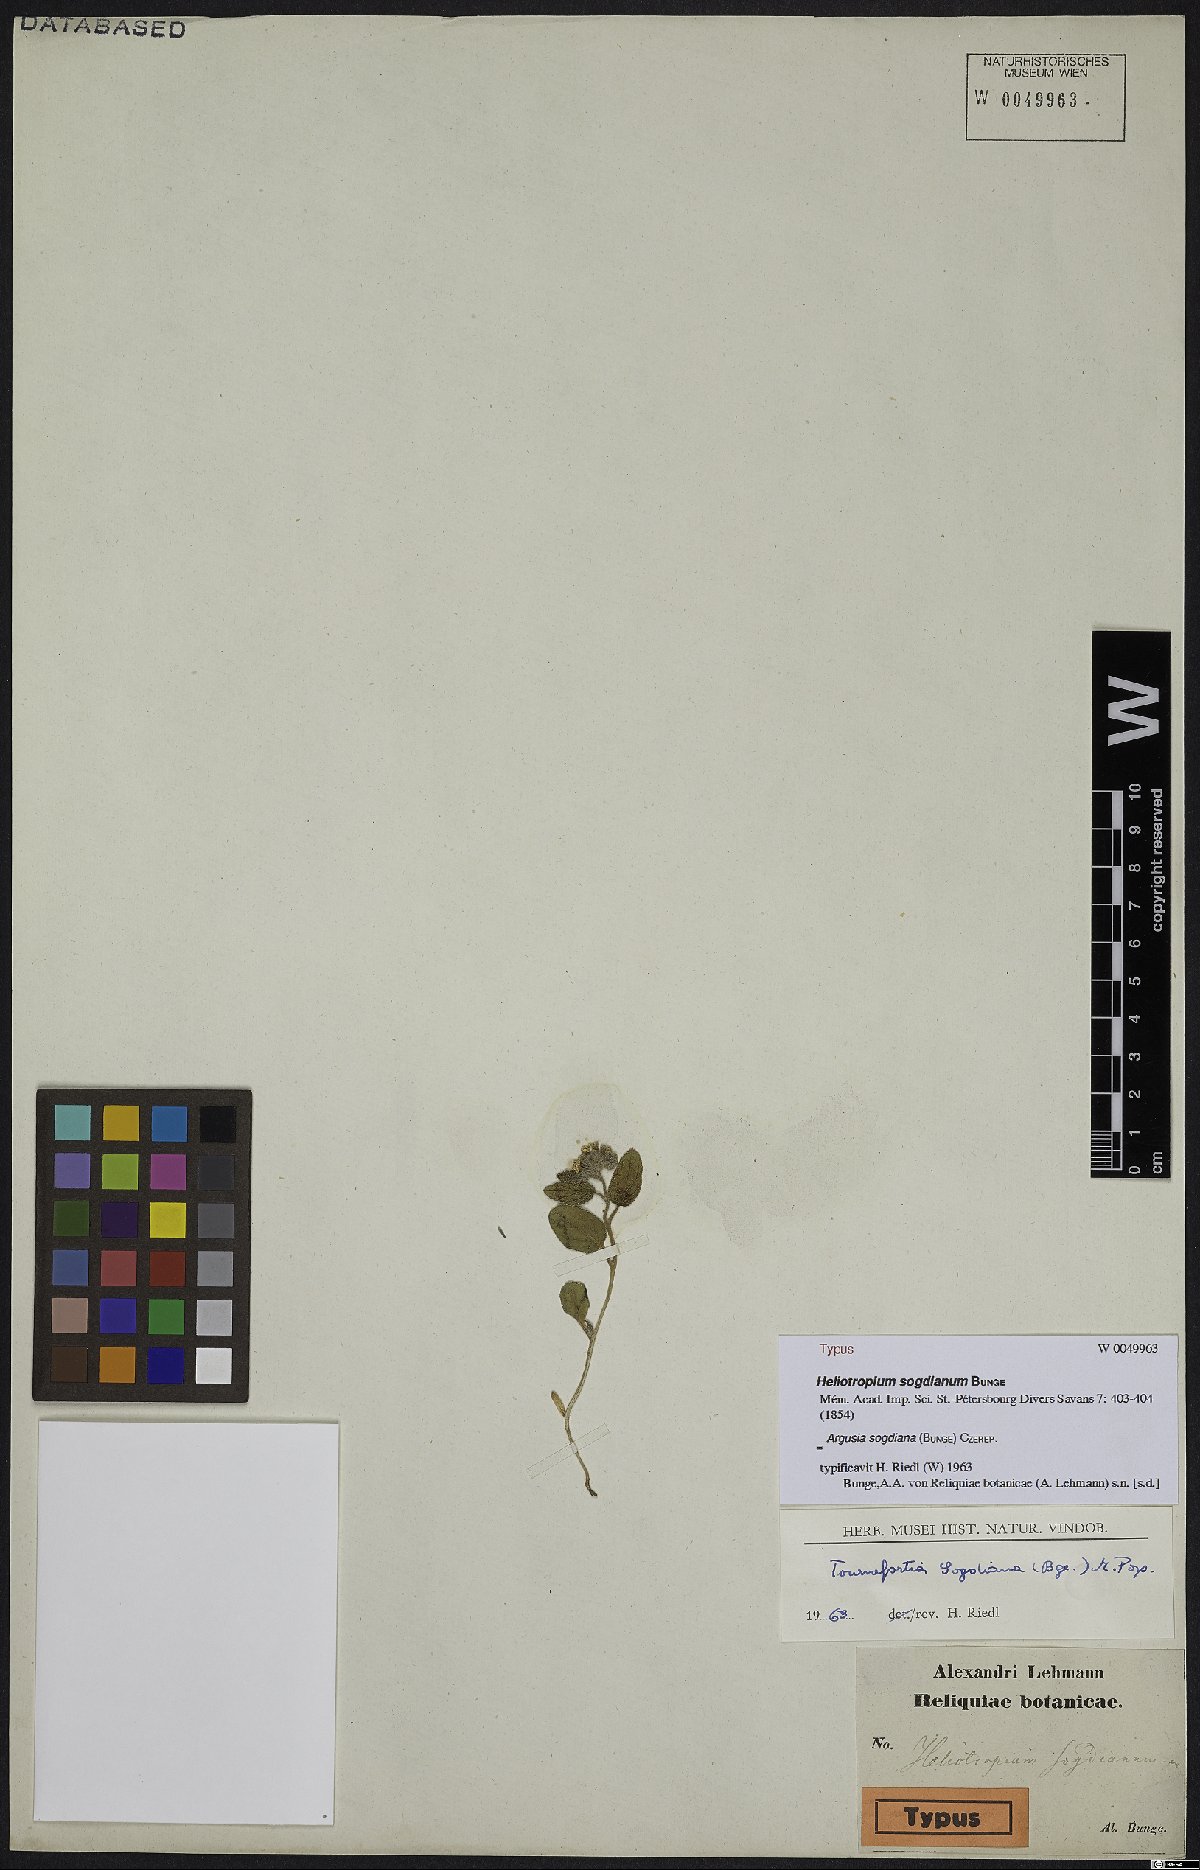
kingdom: Plantae
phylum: Tracheophyta
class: Magnoliopsida
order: Boraginales
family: Heliotropiaceae
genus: Heliotropium
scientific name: Heliotropium sogdianum
